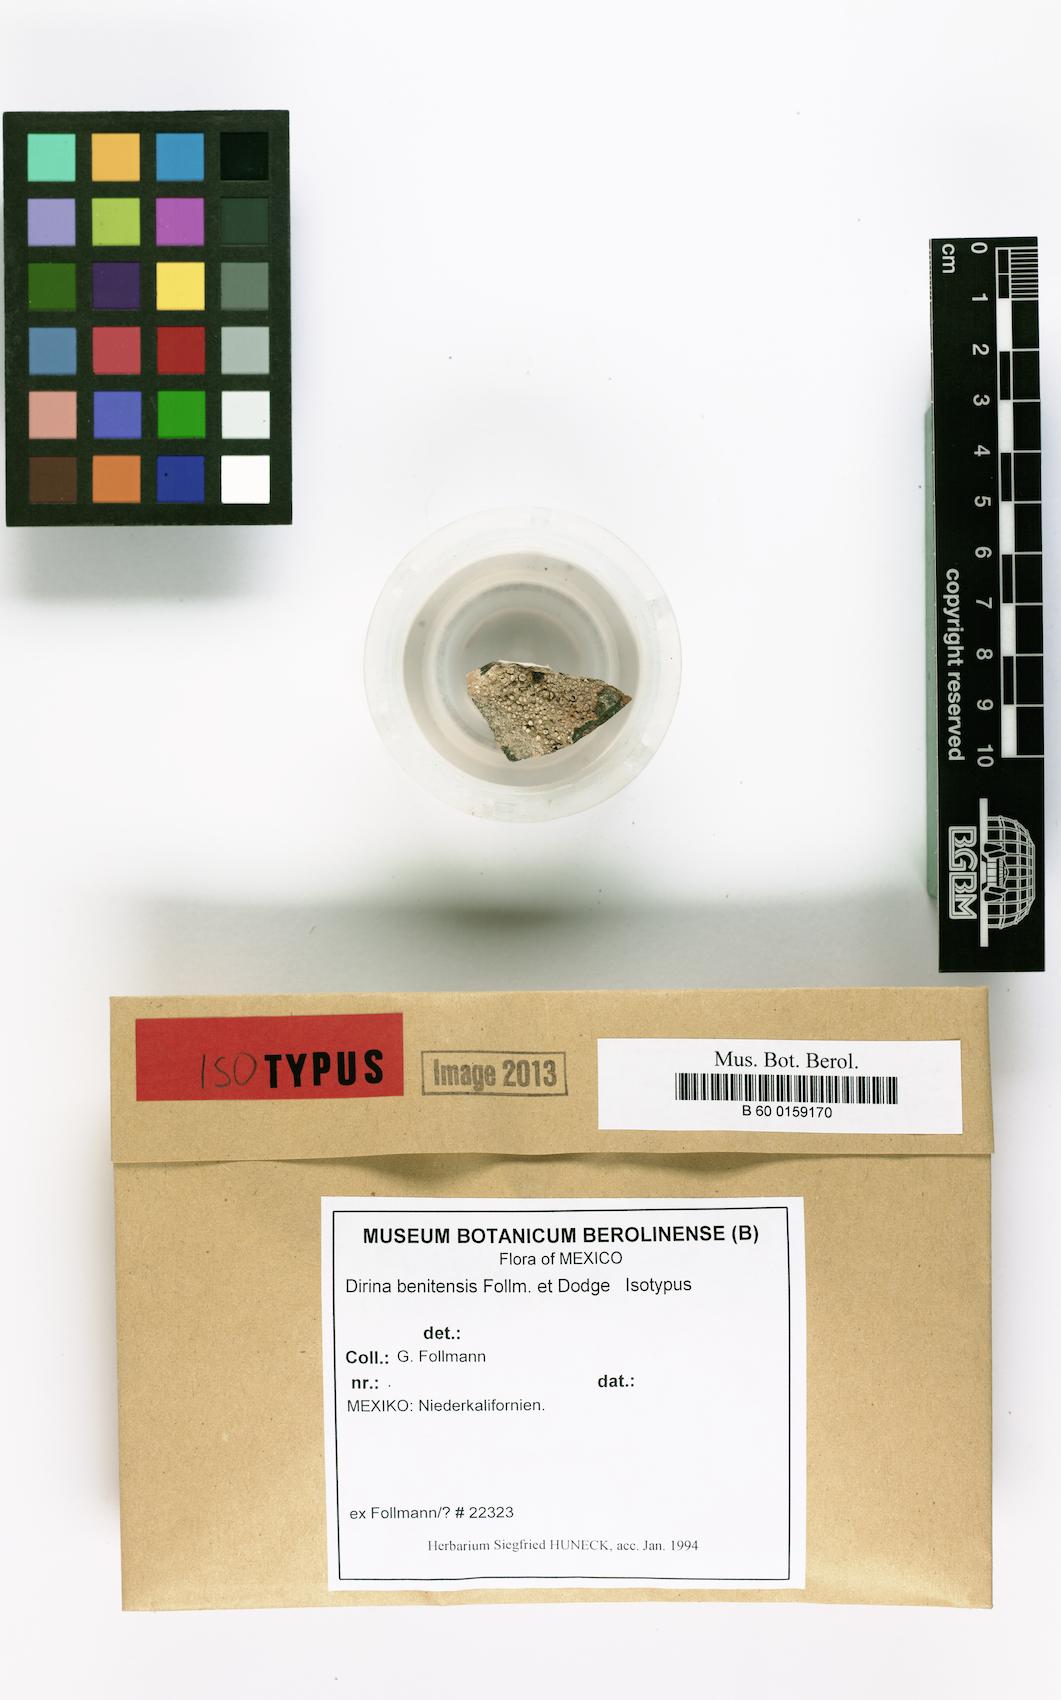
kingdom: Fungi
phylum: Ascomycota
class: Arthoniomycetes
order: Arthoniales
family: Roccellaceae
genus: Dirina
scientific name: Dirina
